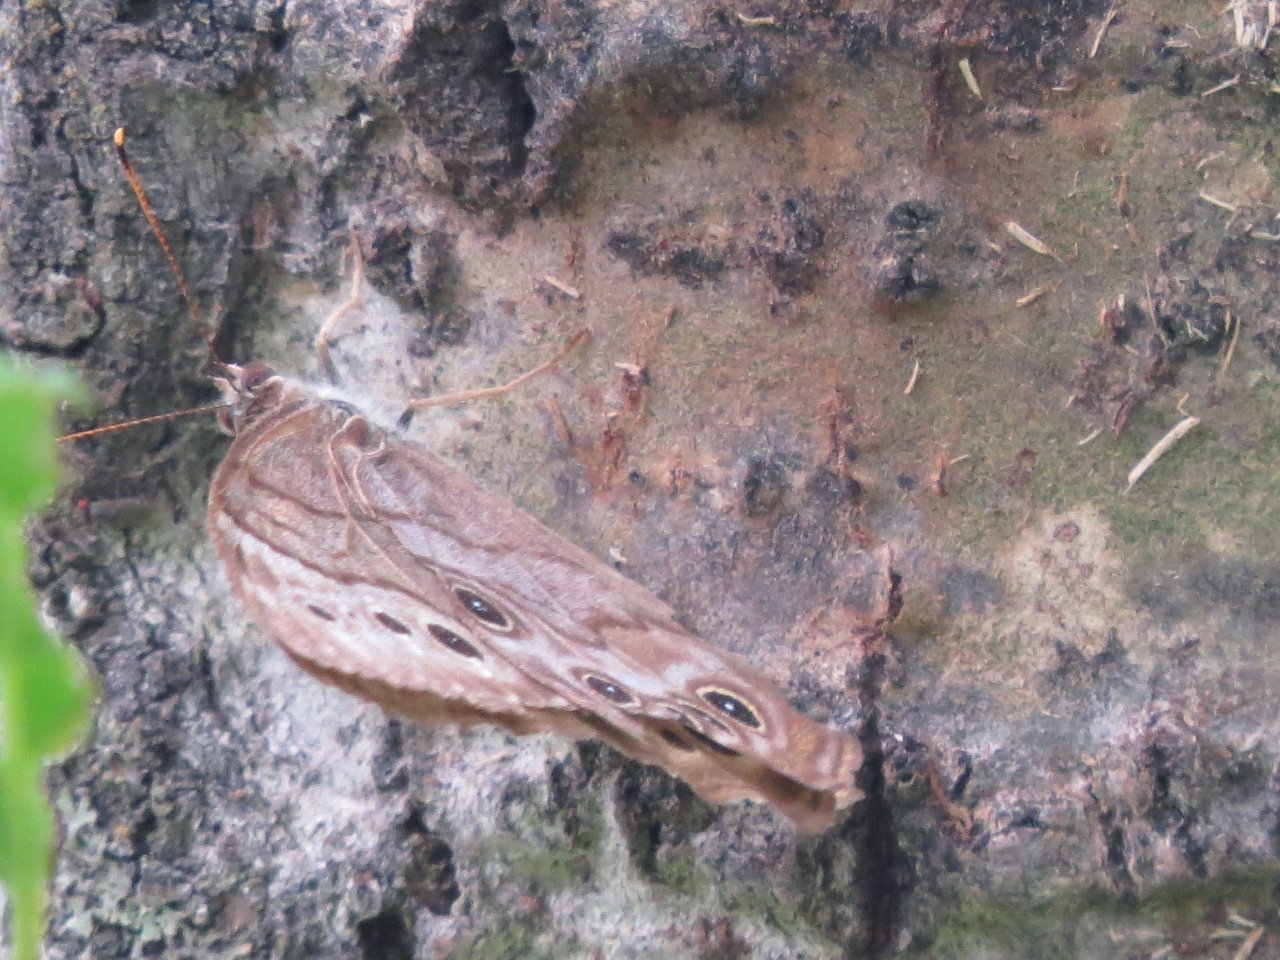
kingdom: Animalia
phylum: Arthropoda
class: Insecta
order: Lepidoptera
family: Nymphalidae
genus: Lethe
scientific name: Lethe anthedon
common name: Northern Pearly-Eye
